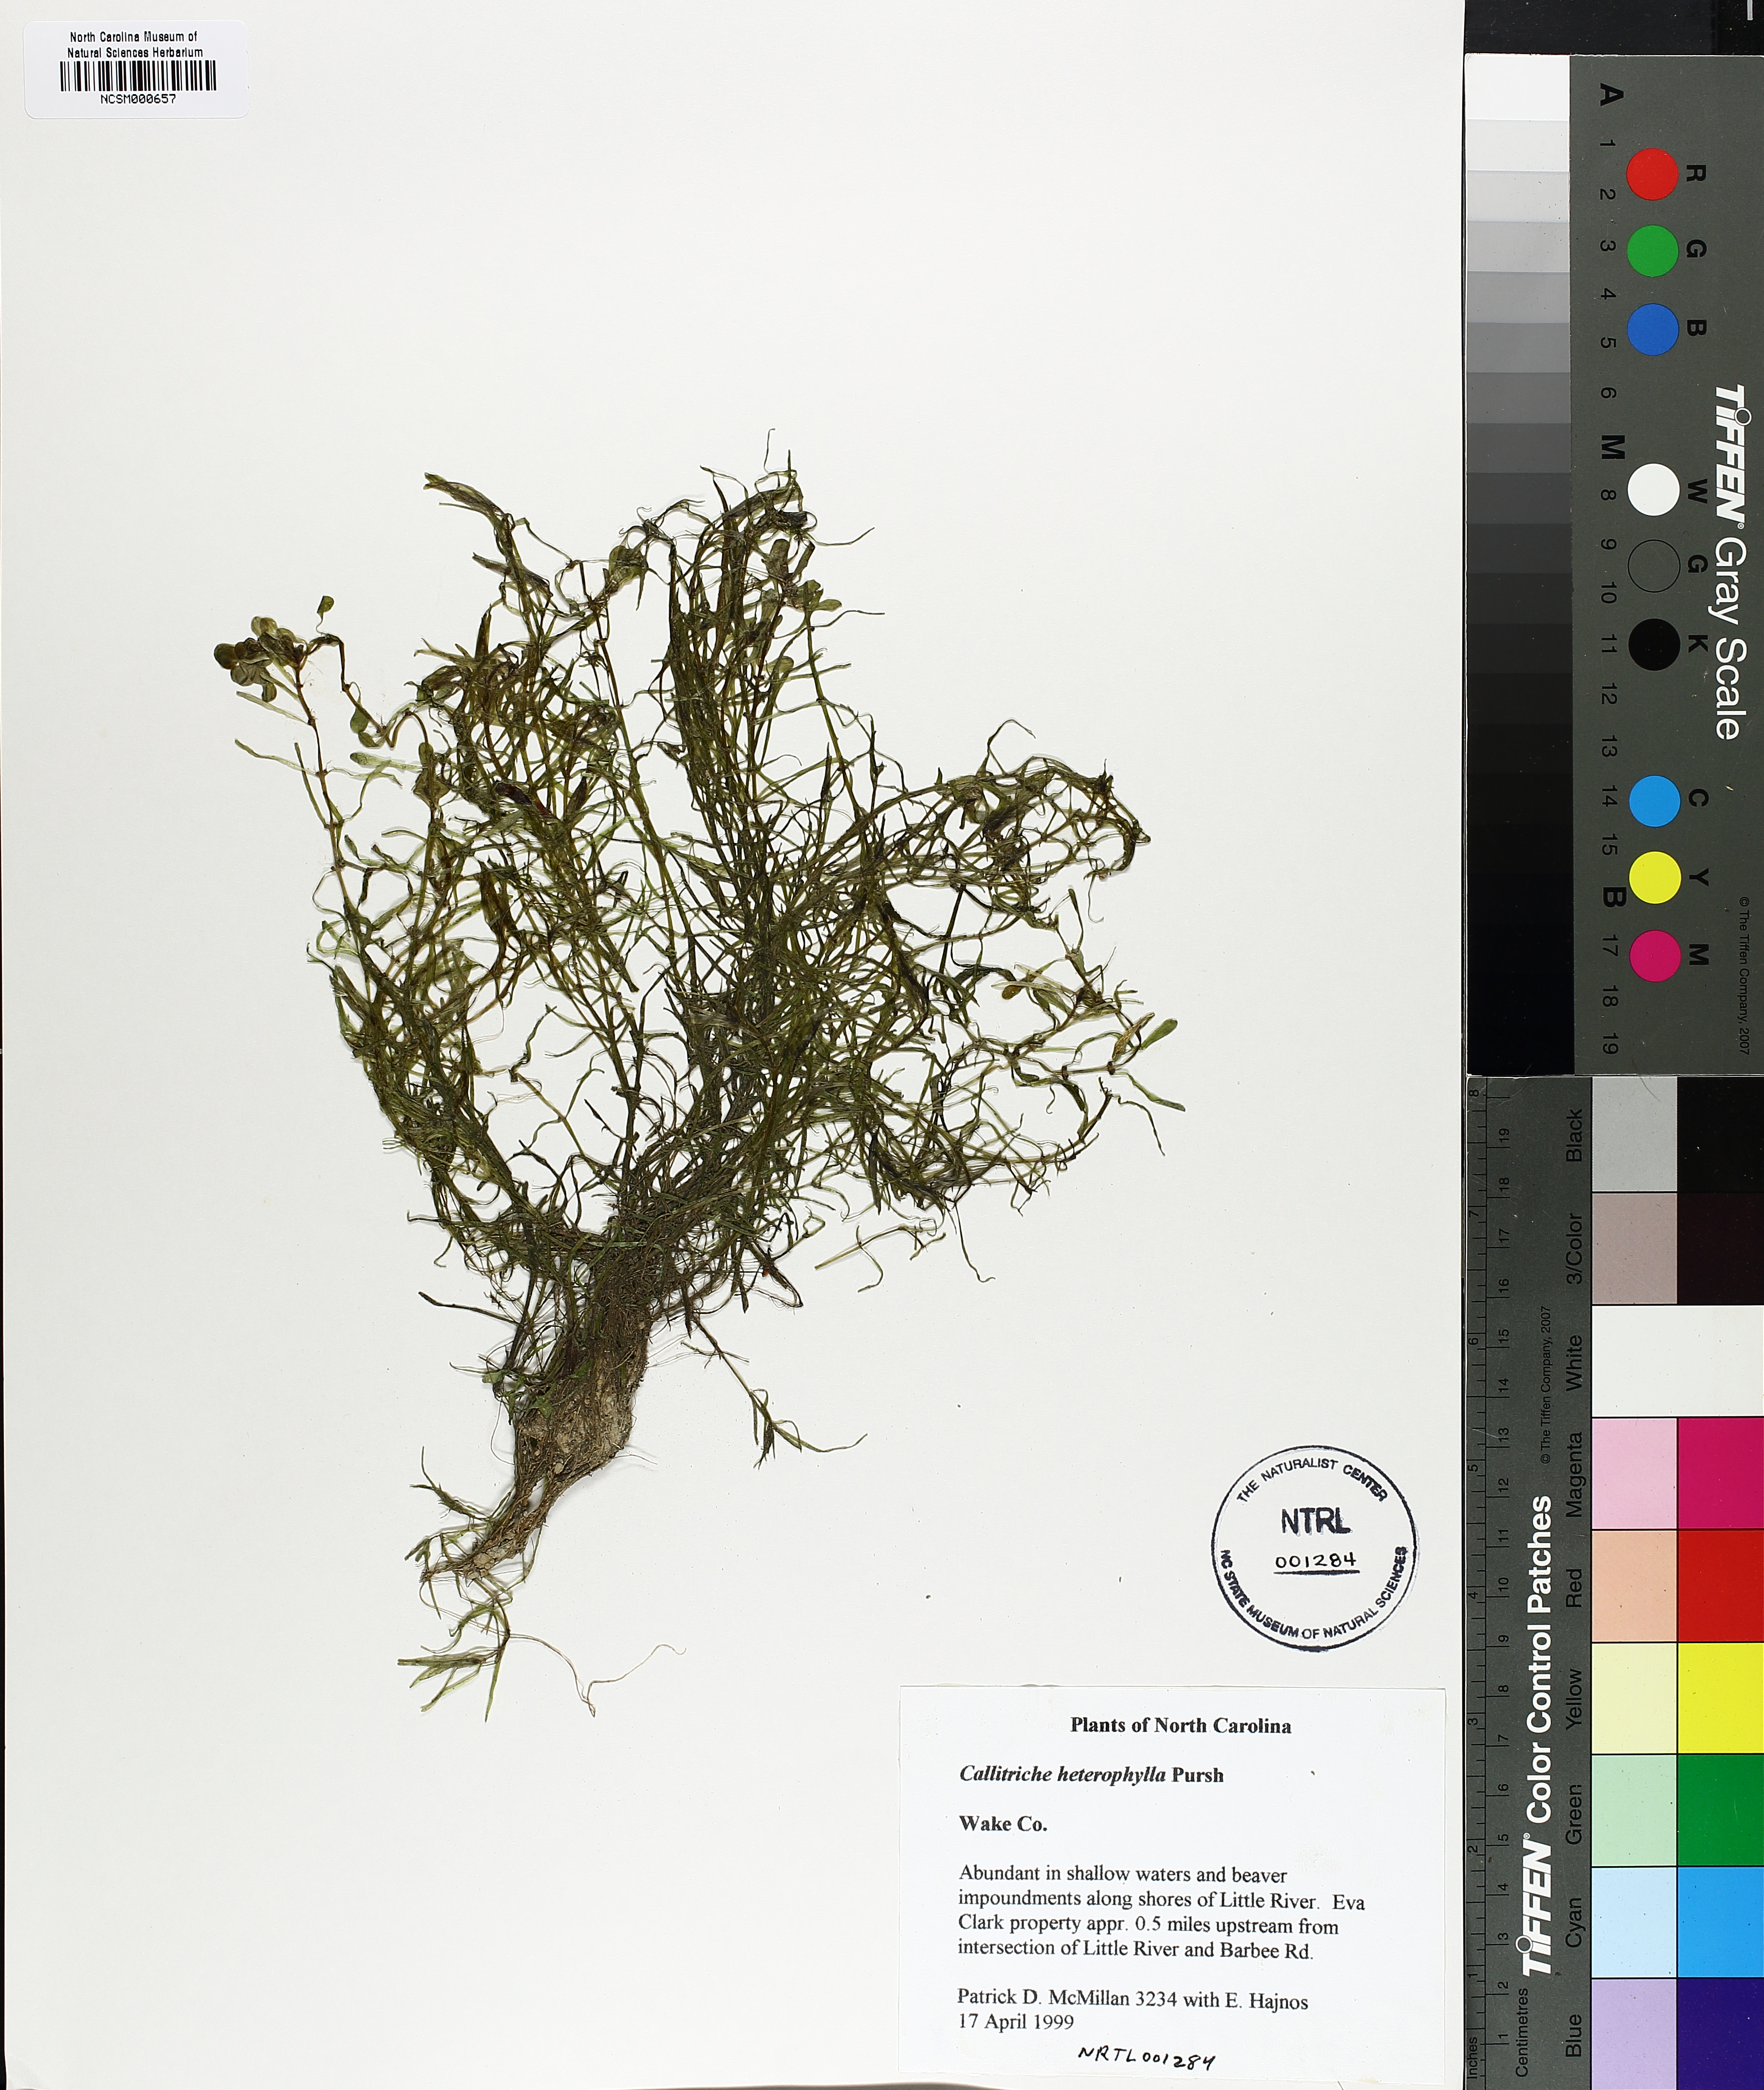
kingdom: Plantae
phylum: Tracheophyta
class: Magnoliopsida
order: Lamiales
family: Plantaginaceae
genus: Callitriche
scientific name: Callitriche heterophylla
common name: Two-headed water-starwort
